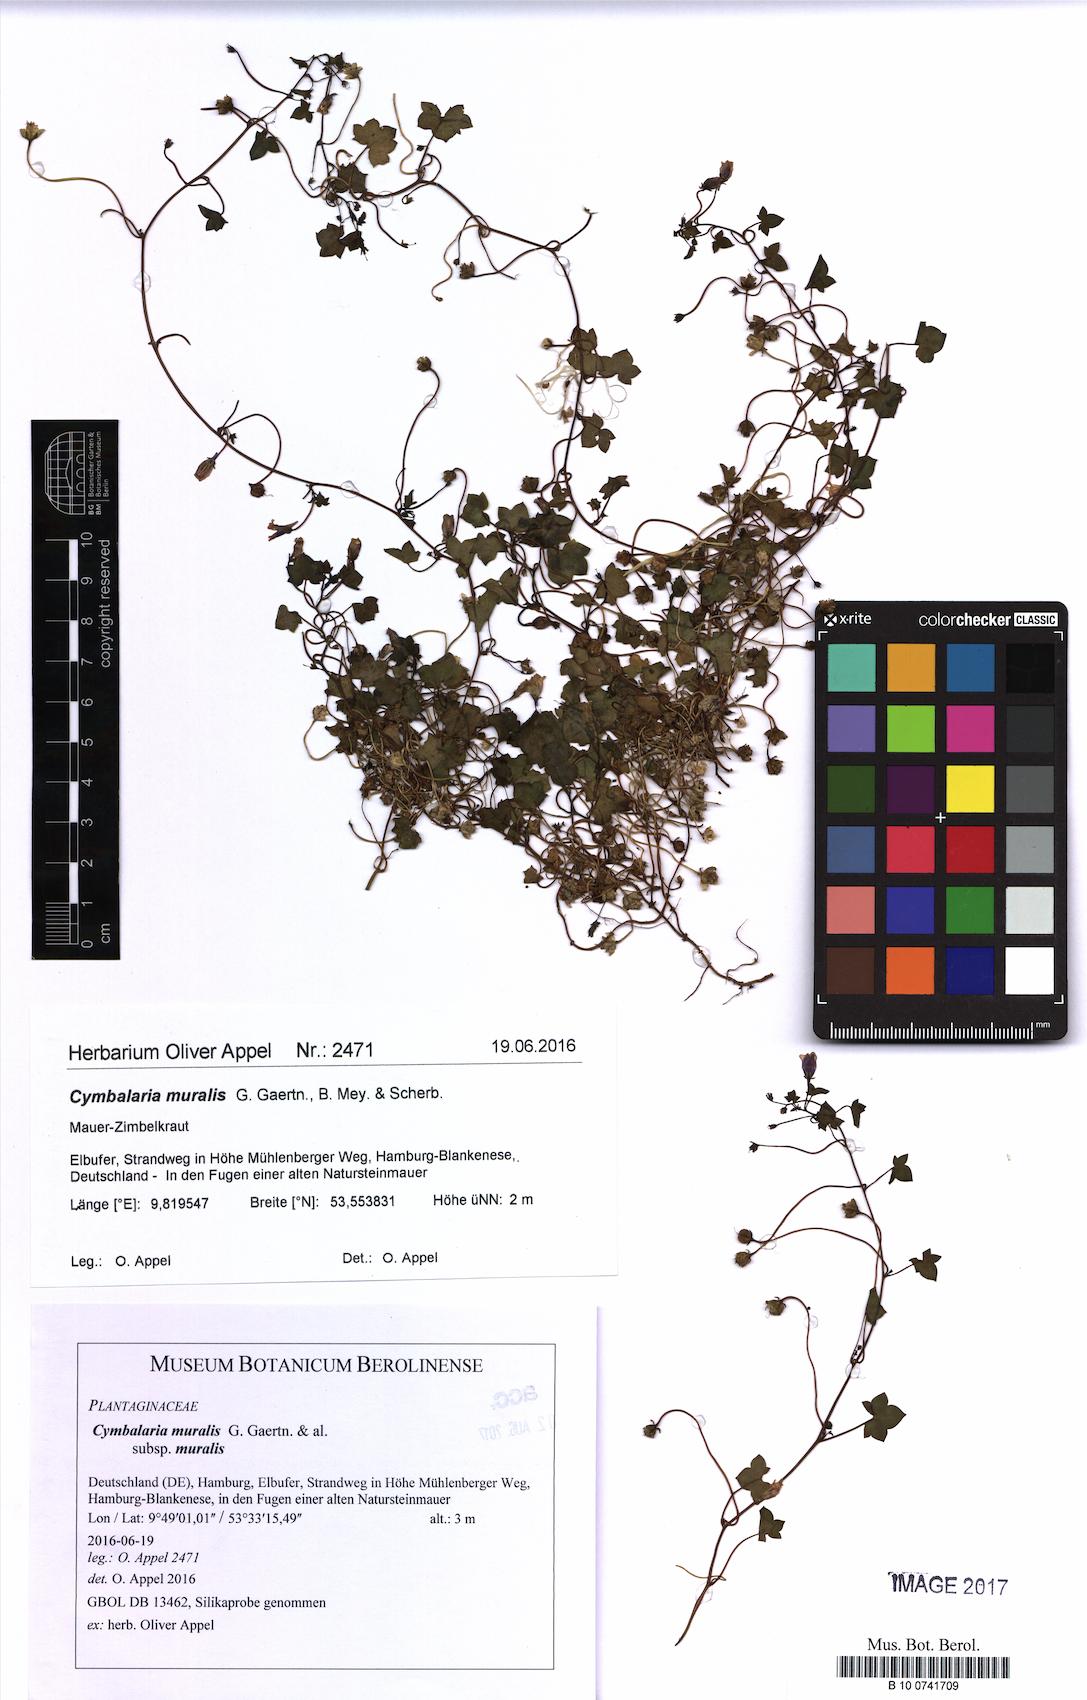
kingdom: Plantae
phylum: Tracheophyta
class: Magnoliopsida
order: Lamiales
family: Plantaginaceae
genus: Cymbalaria
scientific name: Cymbalaria muralis
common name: Ivy-leaved toadflax
